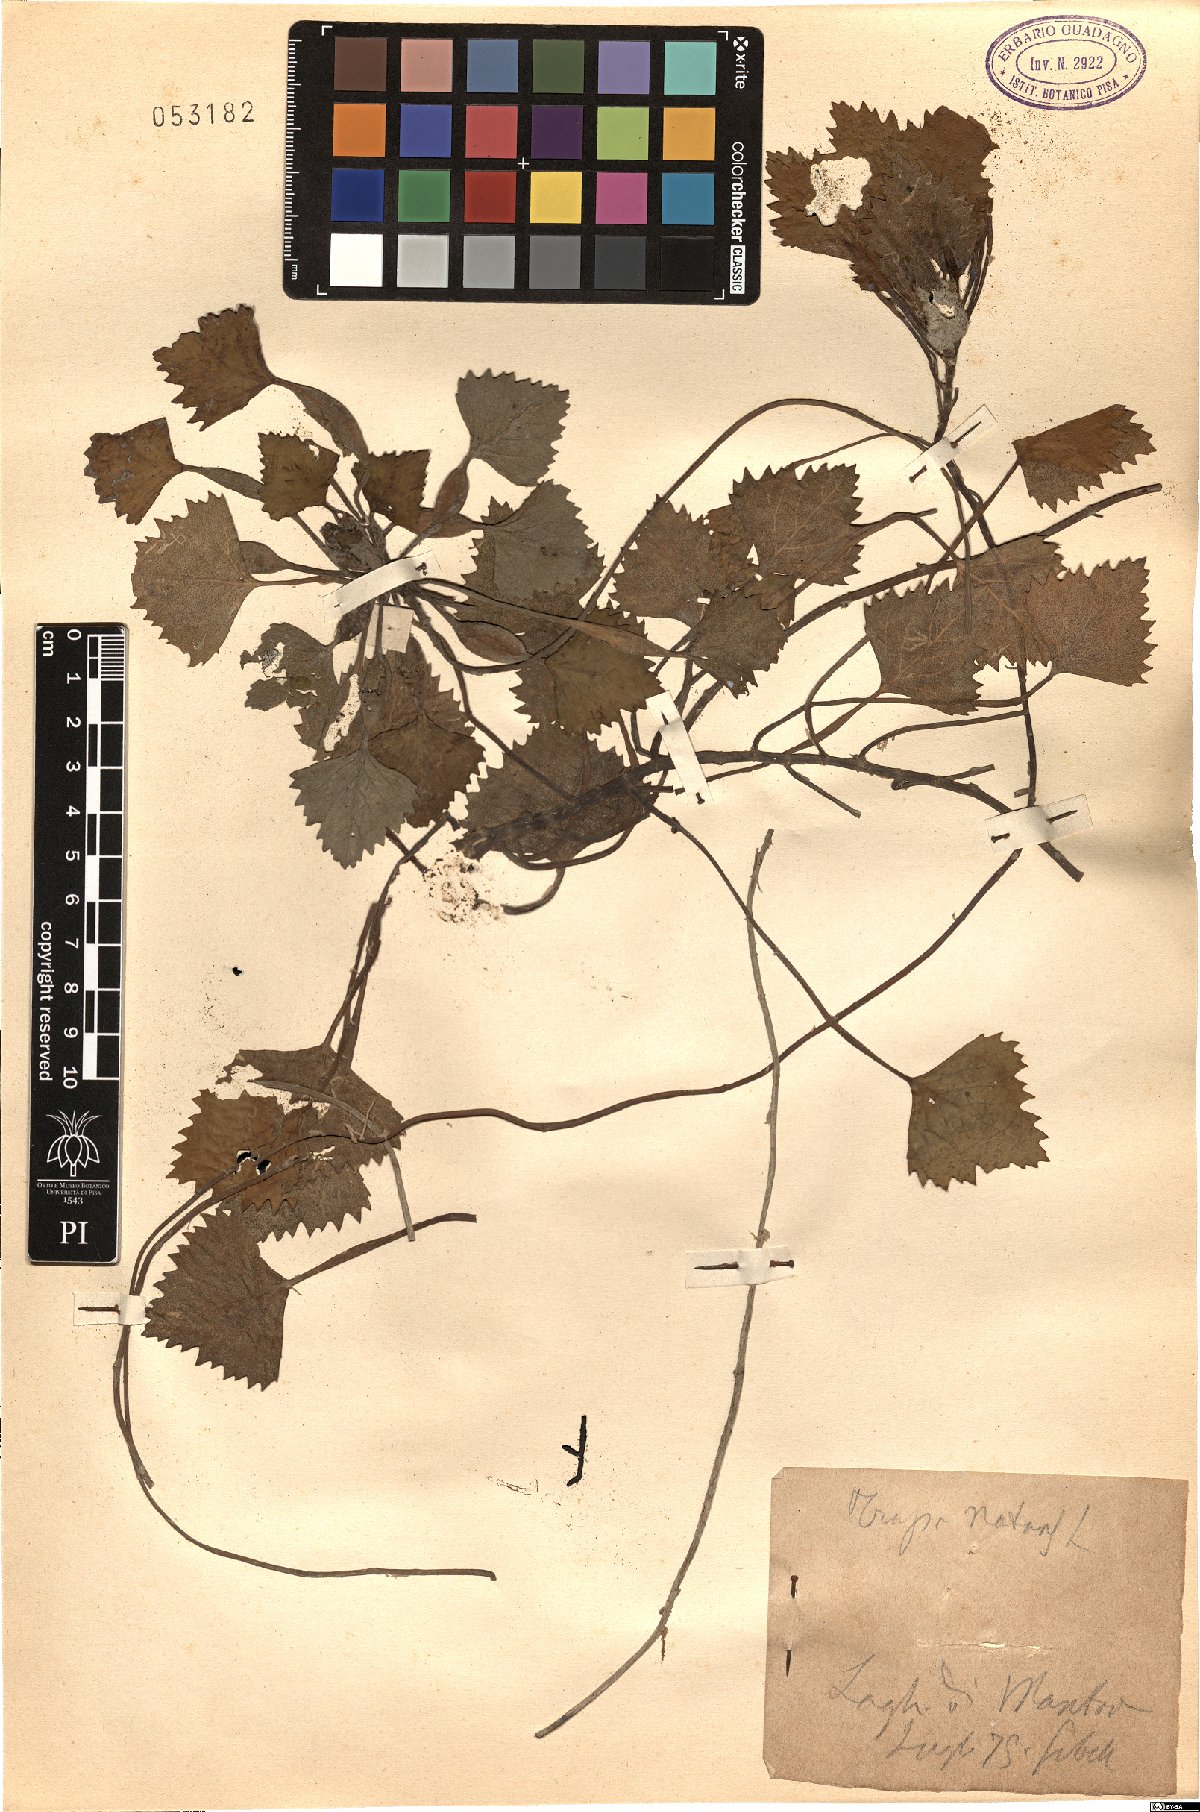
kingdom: Plantae
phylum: Tracheophyta
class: Magnoliopsida
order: Myrtales
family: Lythraceae
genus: Trapa
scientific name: Trapa natans
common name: Water chestnut
